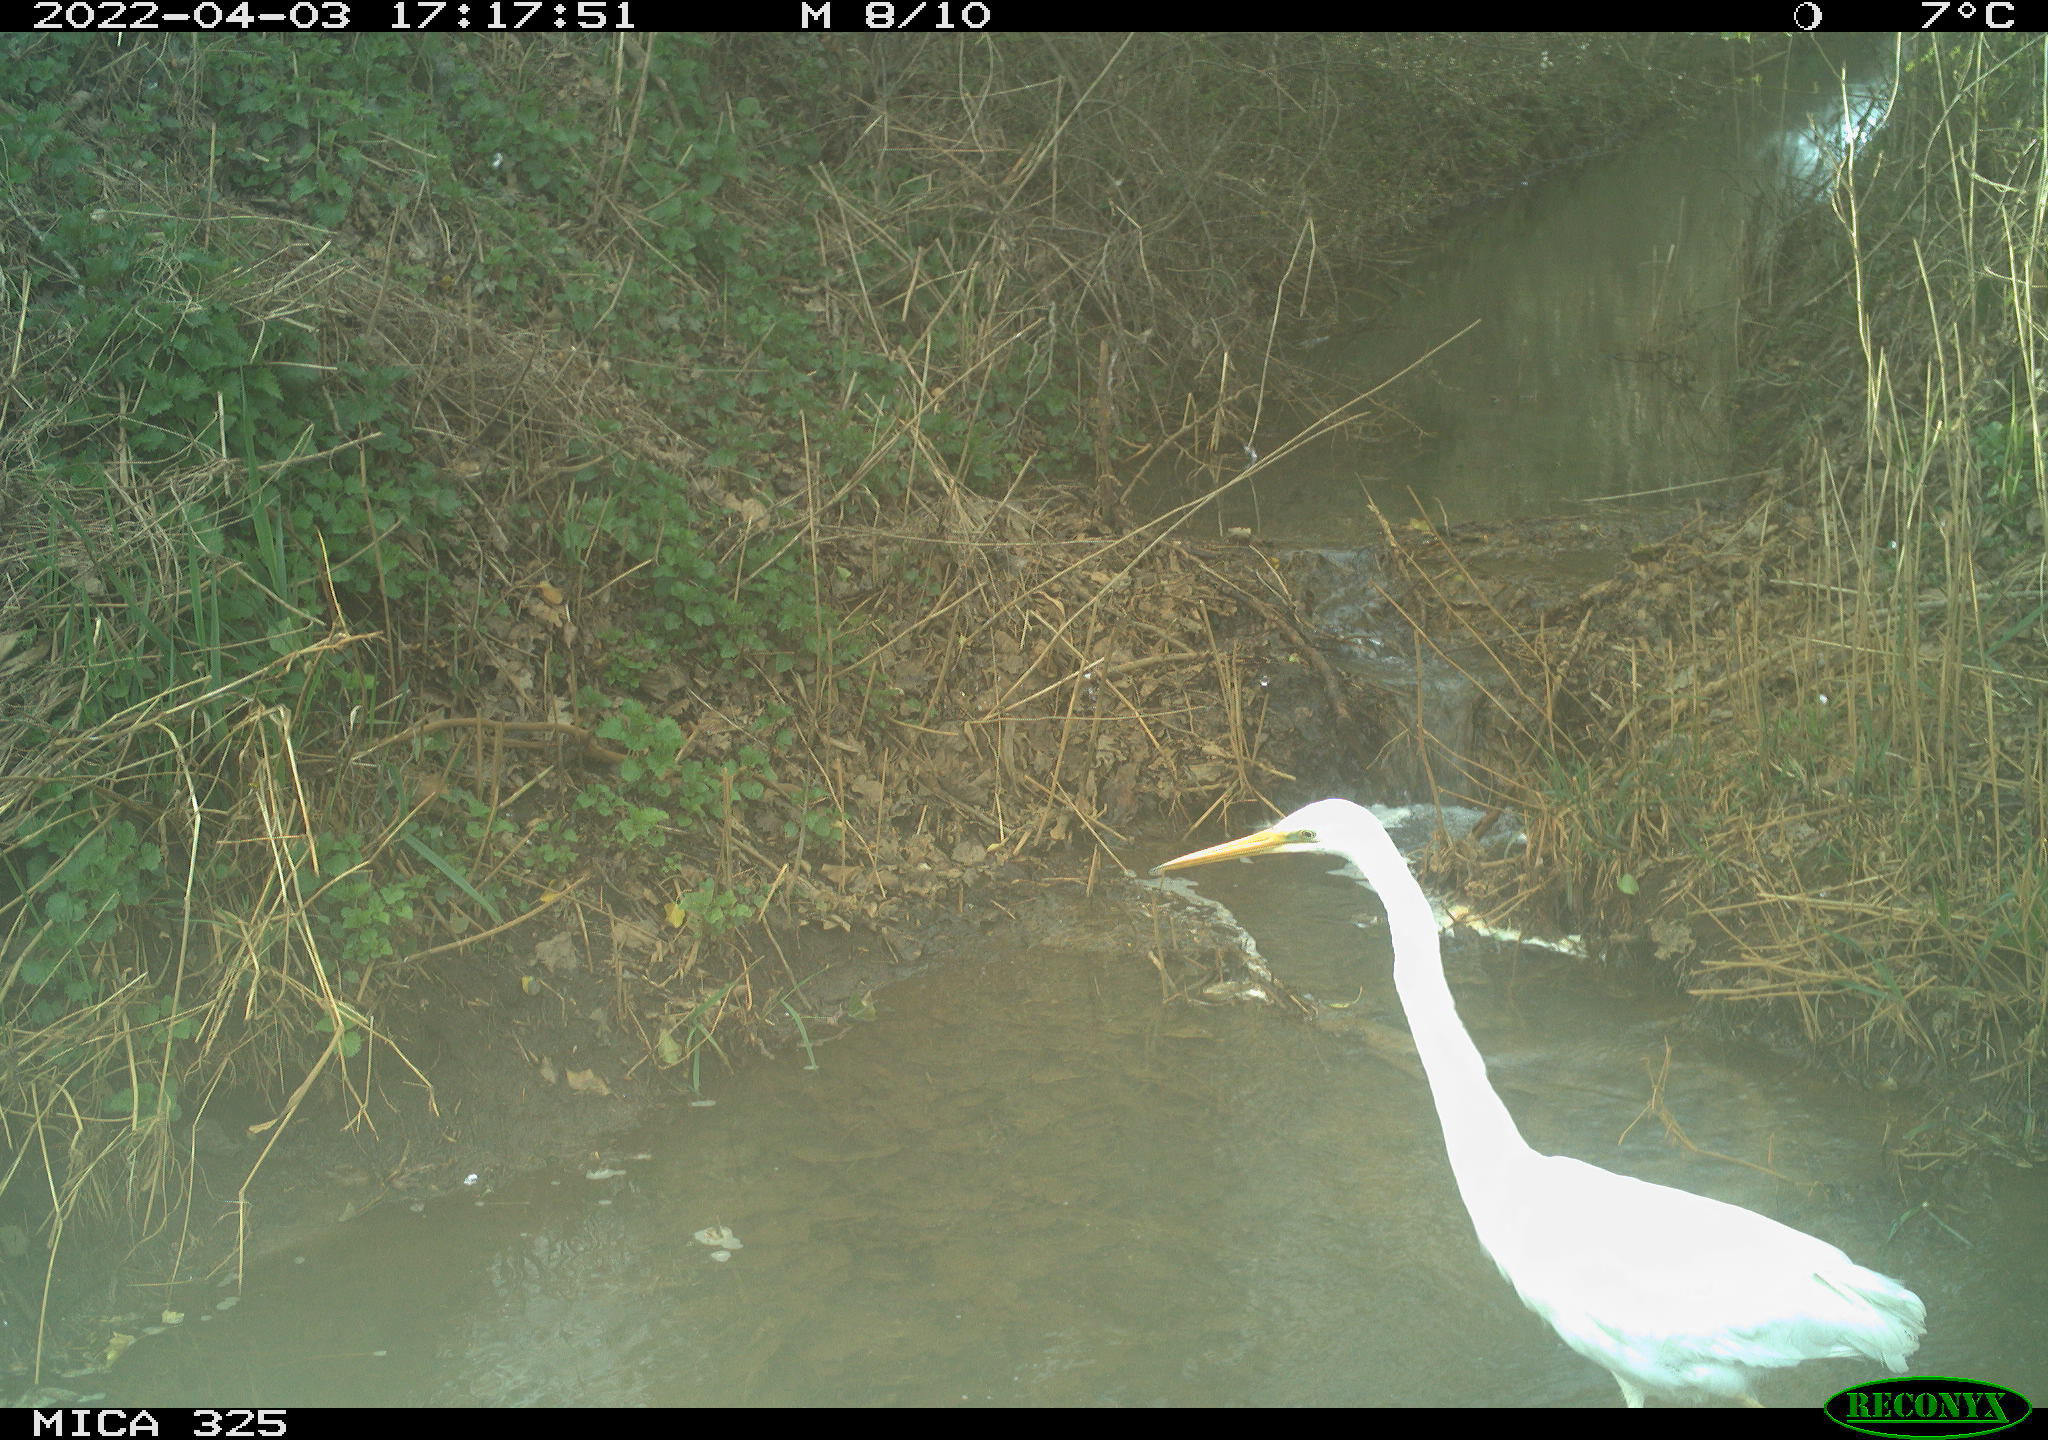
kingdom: Animalia
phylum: Chordata
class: Aves
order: Pelecaniformes
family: Ardeidae
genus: Ardea
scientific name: Ardea alba
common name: Great egret
